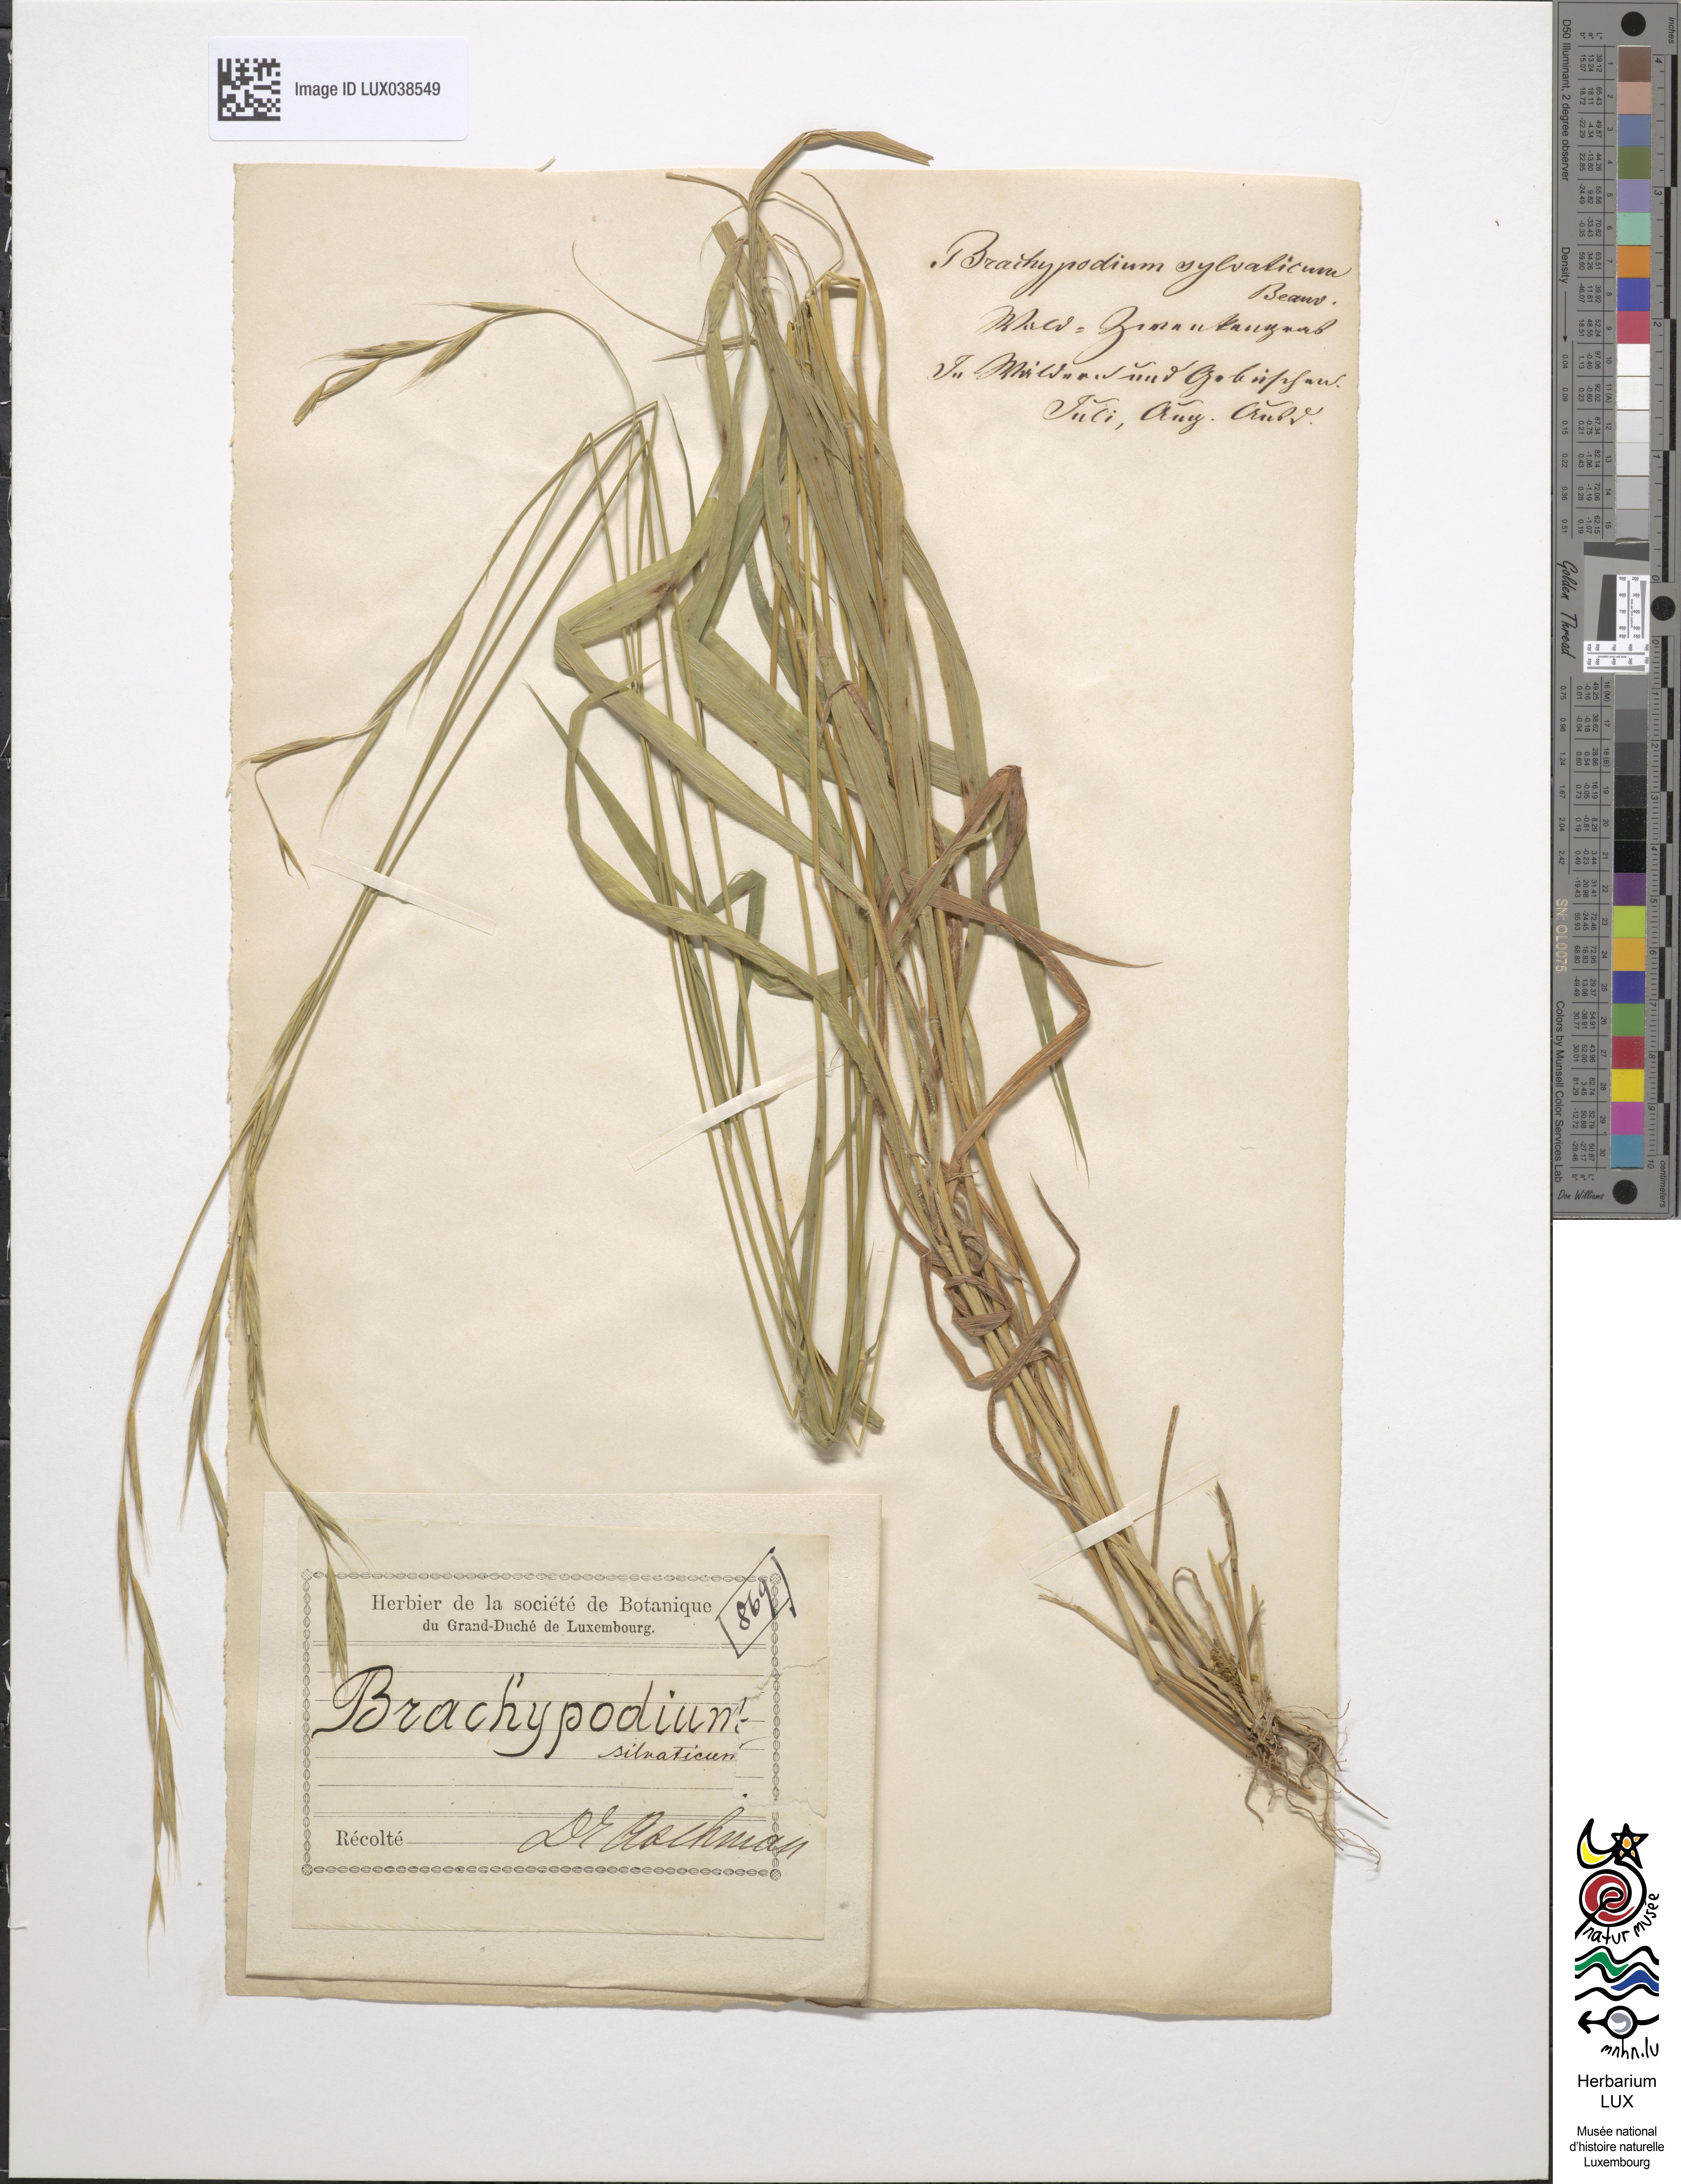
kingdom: Plantae
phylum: Tracheophyta
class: Liliopsida
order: Poales
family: Poaceae
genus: Brachypodium
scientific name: Brachypodium sylvaticum
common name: False-brome
